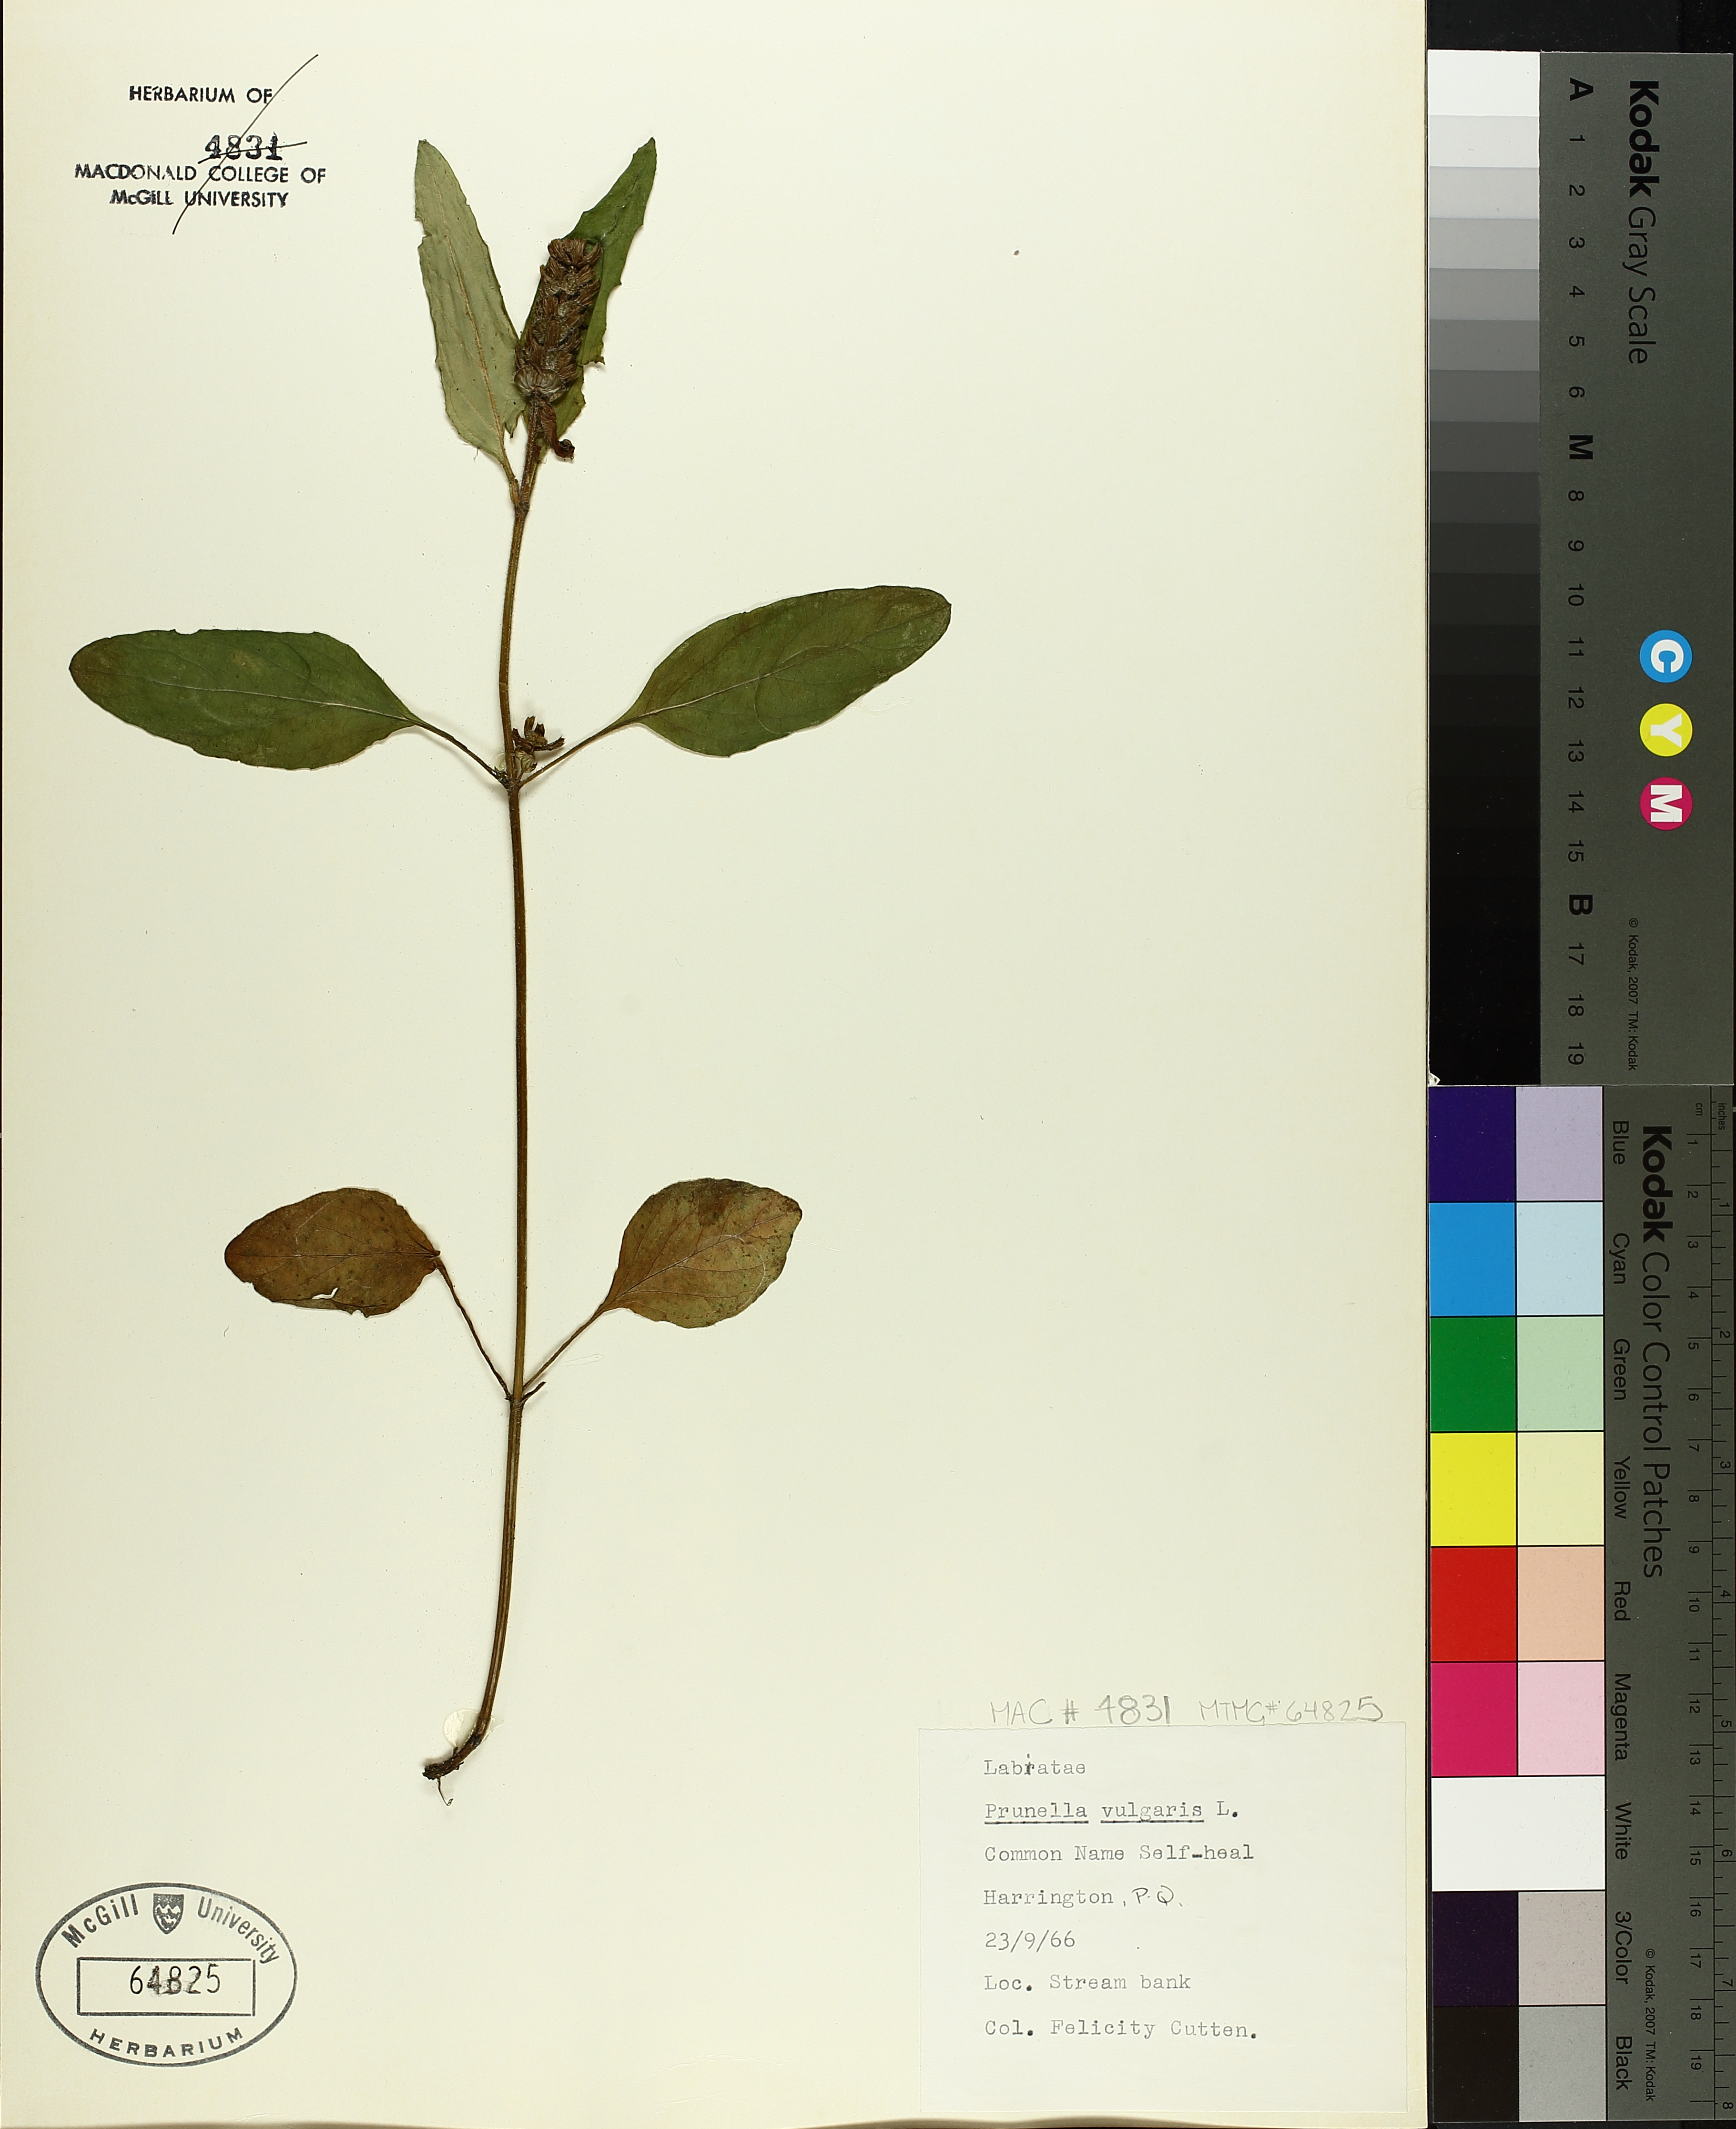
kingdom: Plantae
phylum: Tracheophyta
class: Magnoliopsida
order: Lamiales
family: Lamiaceae
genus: Prunella
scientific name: Prunella vulgaris
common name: Heal-all
